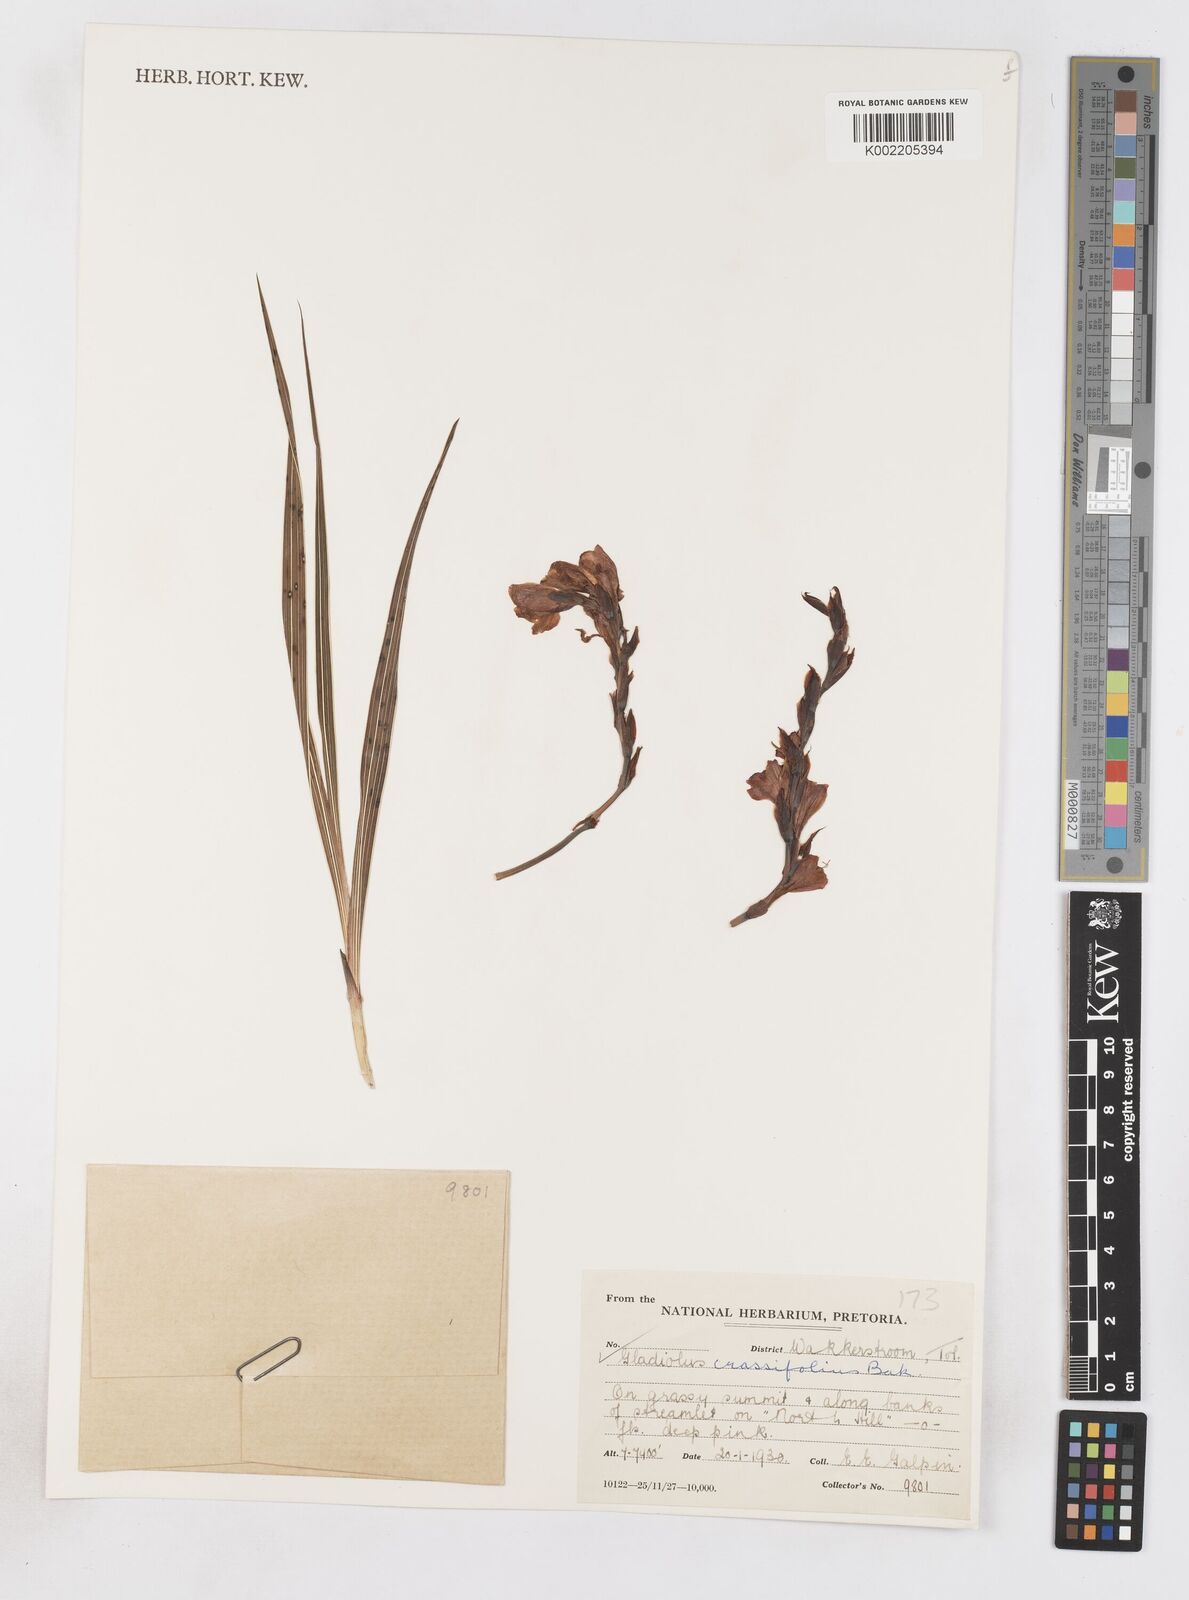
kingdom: Plantae
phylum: Tracheophyta
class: Liliopsida
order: Asparagales
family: Iridaceae
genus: Gladiolus
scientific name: Gladiolus crassifolius
